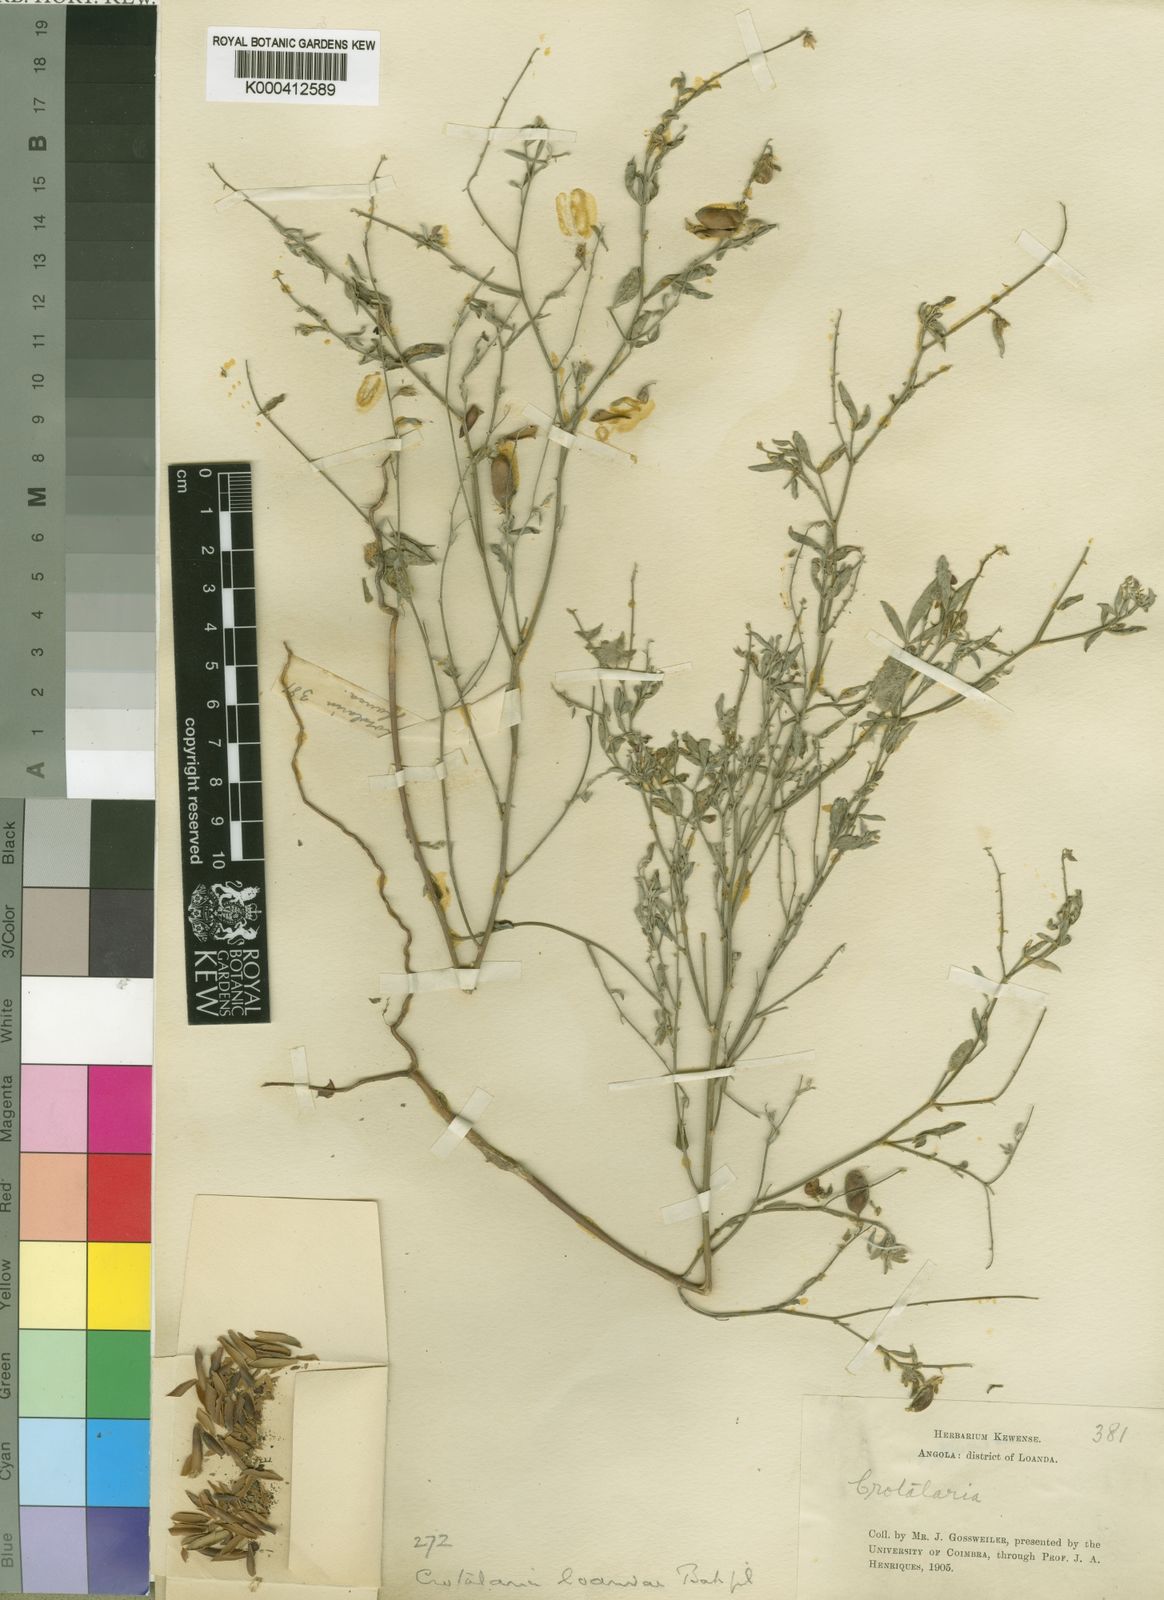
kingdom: Plantae
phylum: Tracheophyta
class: Magnoliopsida
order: Fabales
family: Fabaceae
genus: Crotalaria
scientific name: Crotalaria loandae
